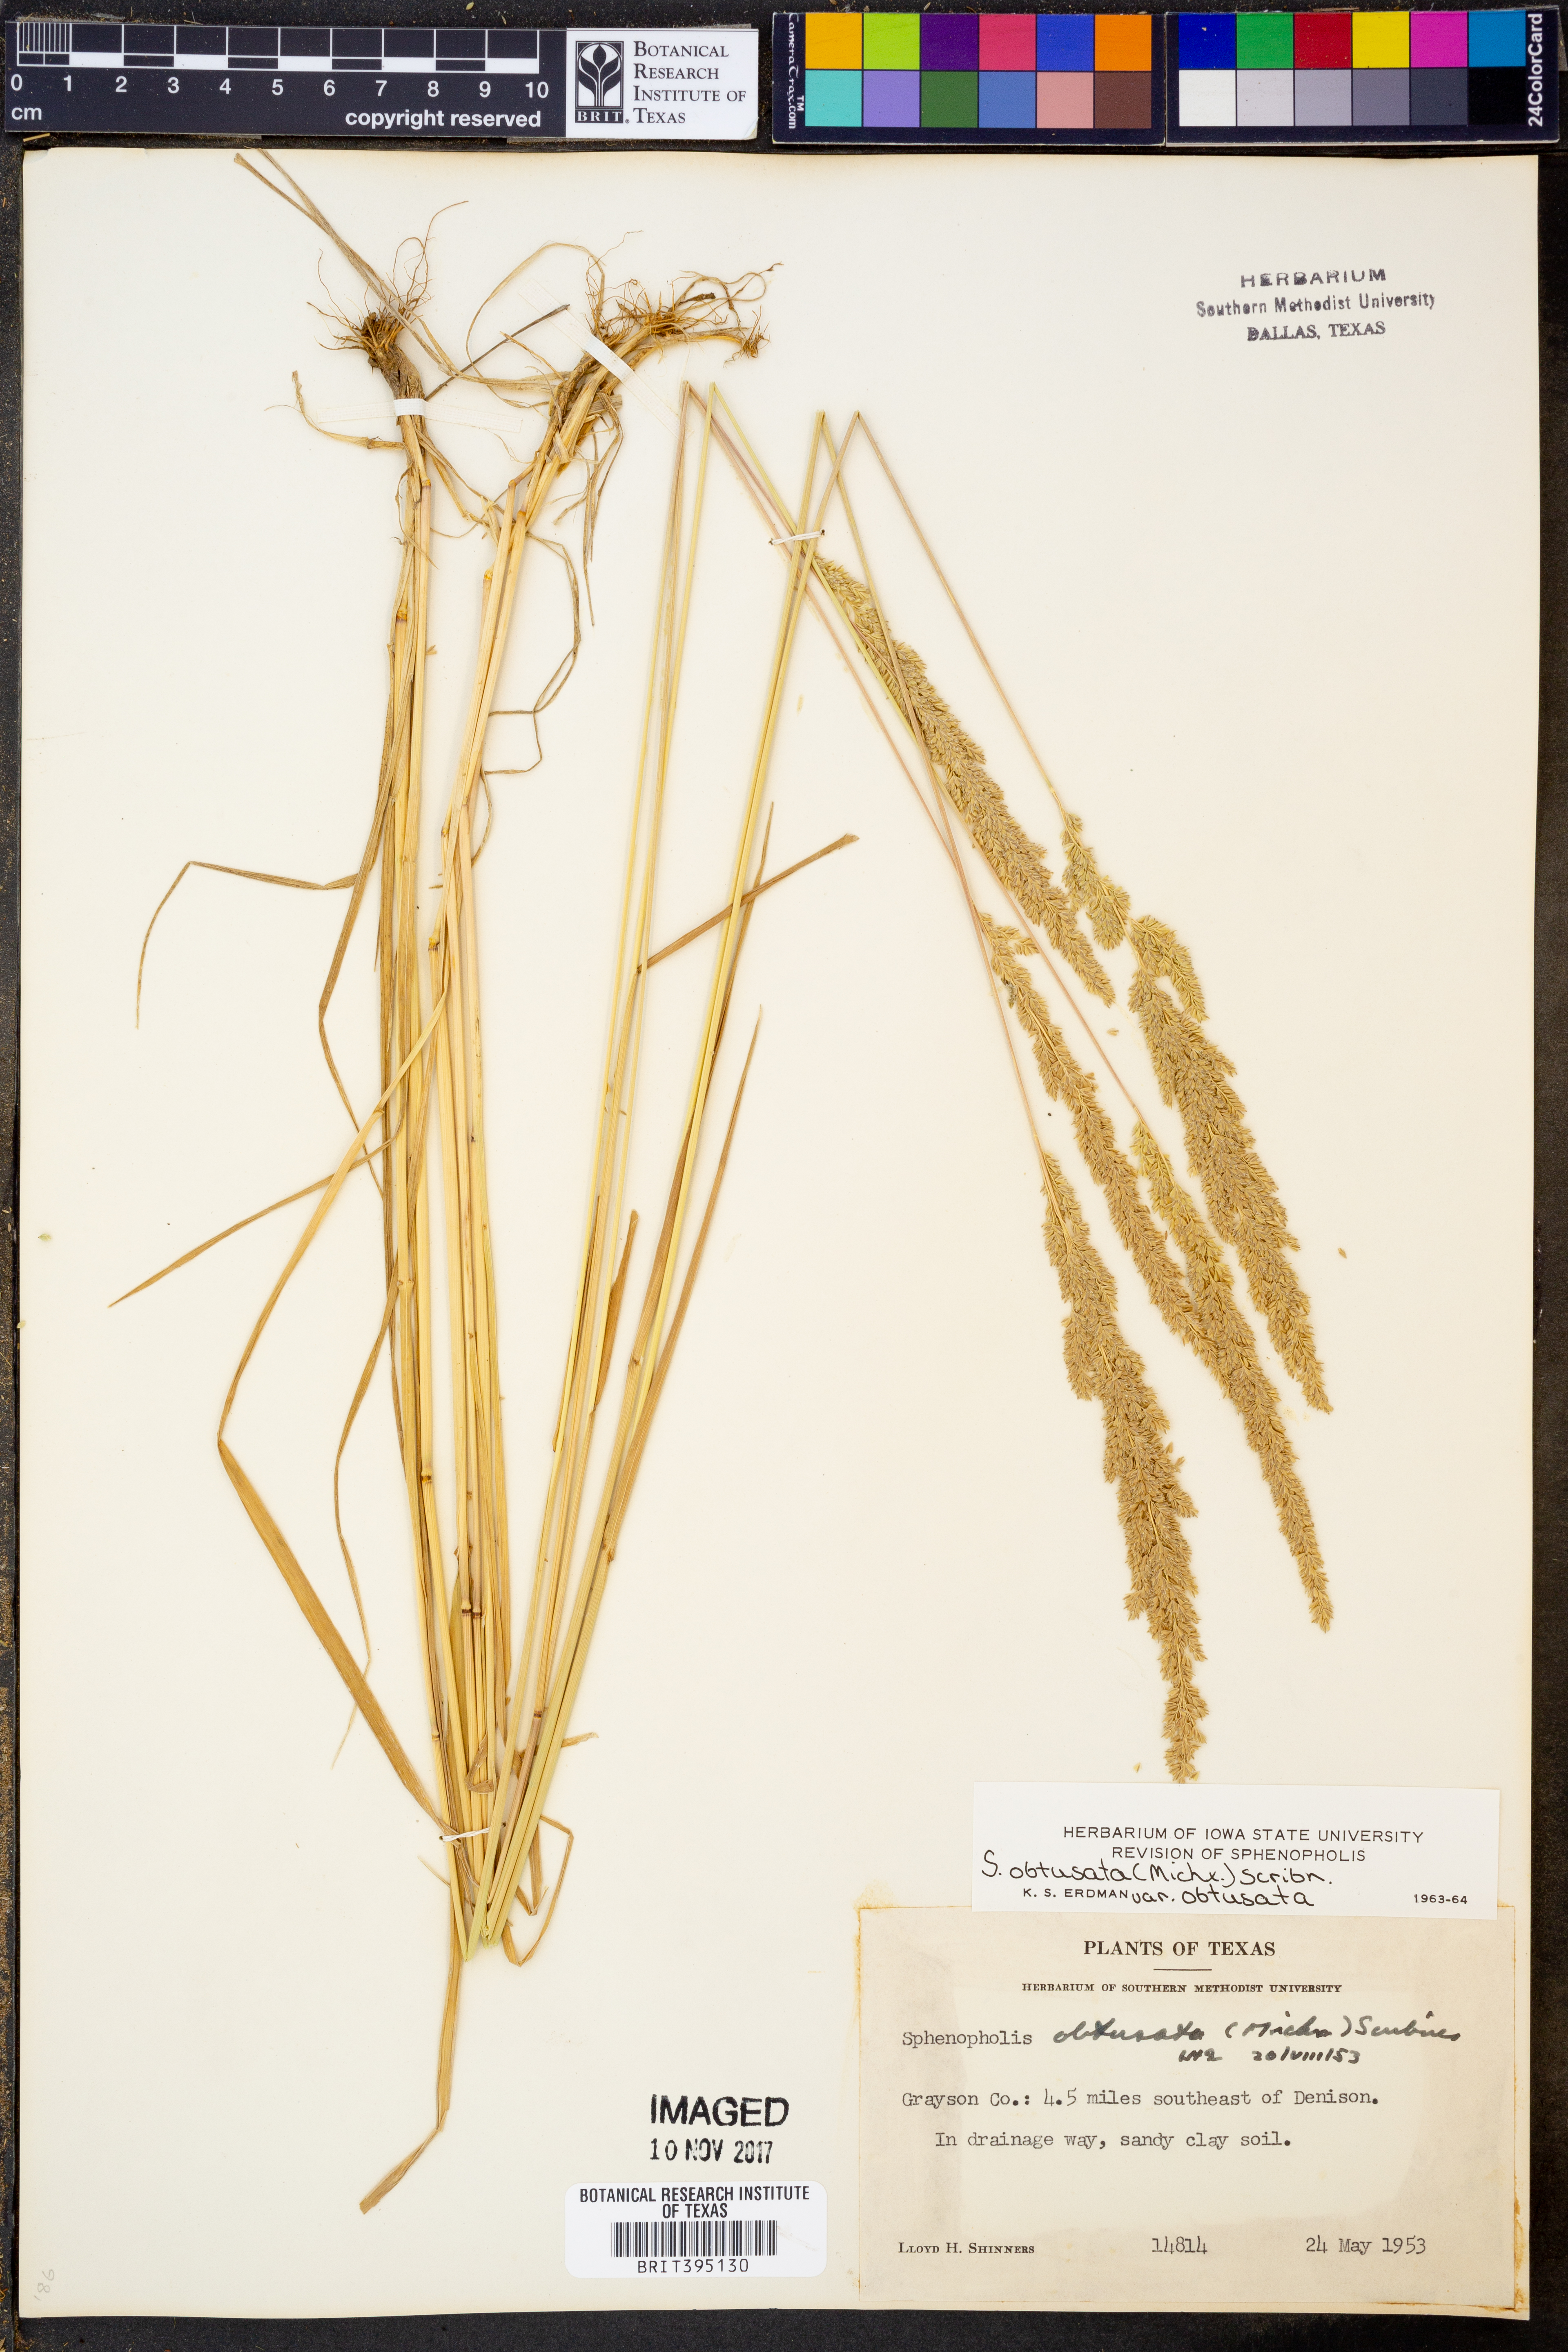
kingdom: Plantae
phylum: Tracheophyta
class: Liliopsida
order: Poales
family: Poaceae
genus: Sphenopholis
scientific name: Sphenopholis obtusata
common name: Prairie grass
